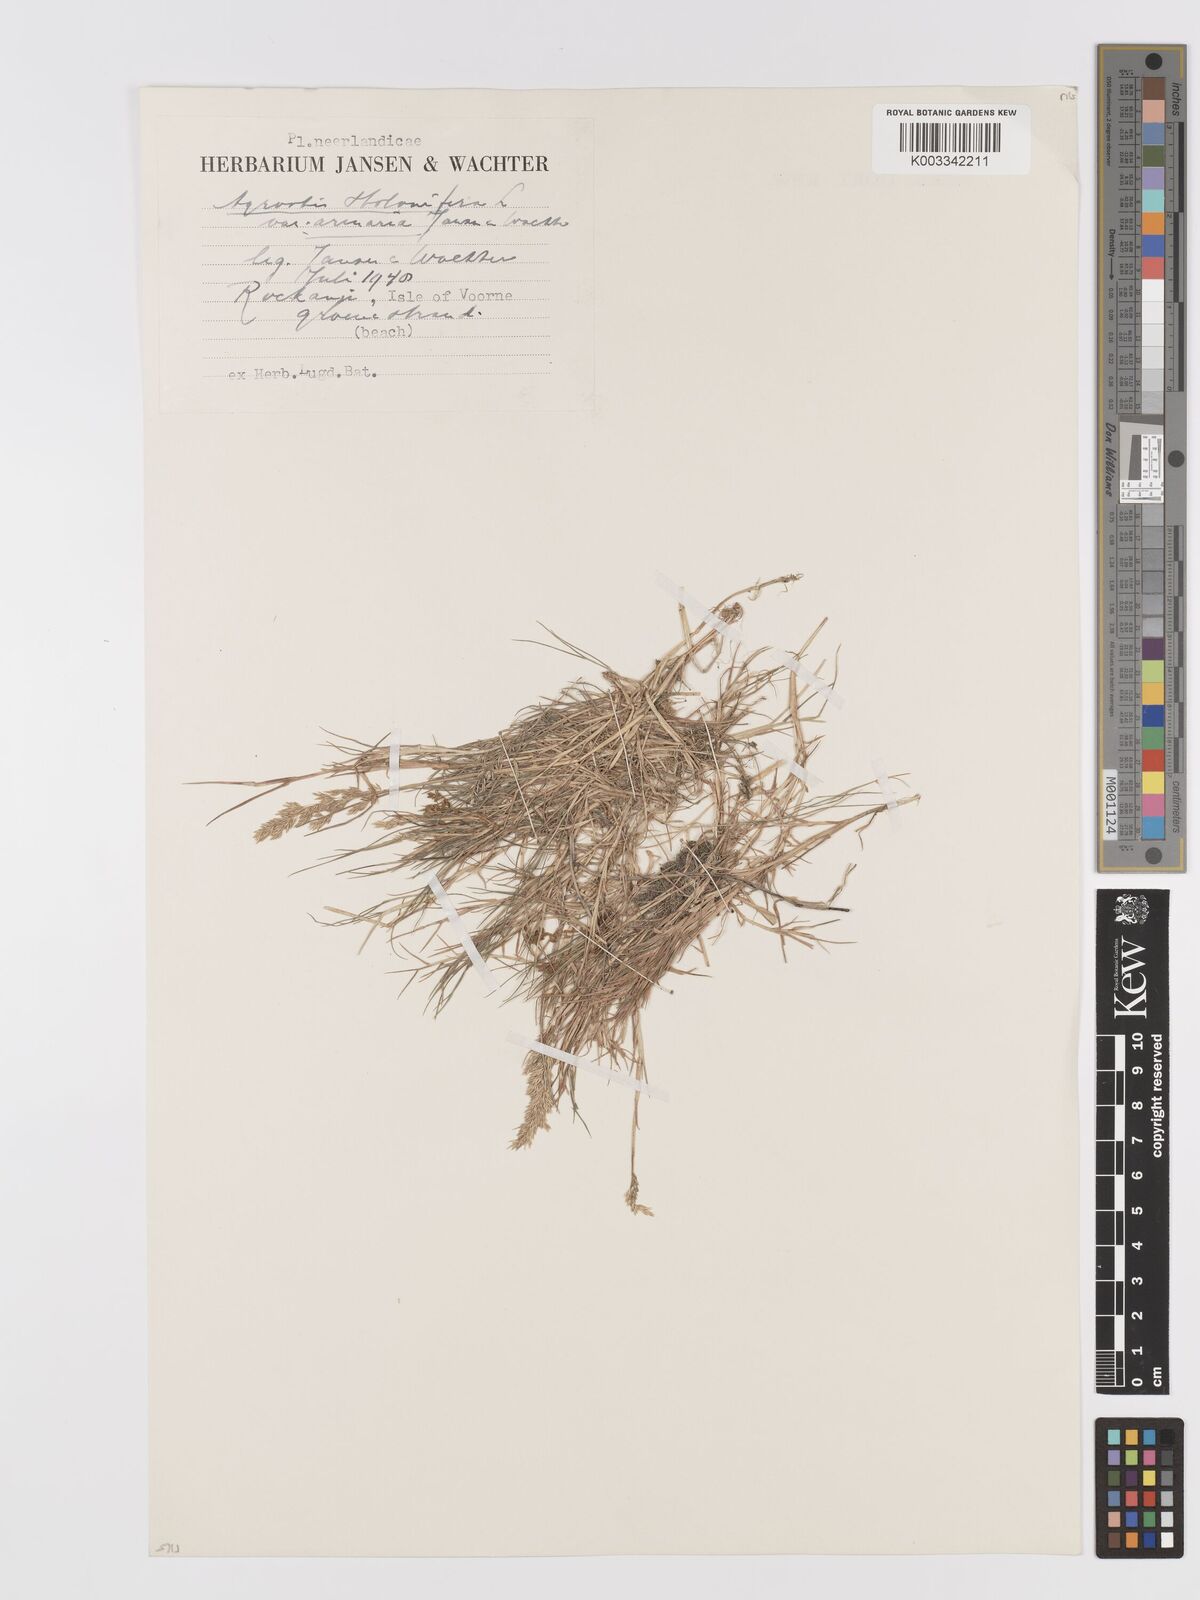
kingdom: Plantae
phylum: Tracheophyta
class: Liliopsida
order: Poales
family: Poaceae
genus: Agrostis
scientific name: Agrostis stolonifera
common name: Creeping bentgrass
